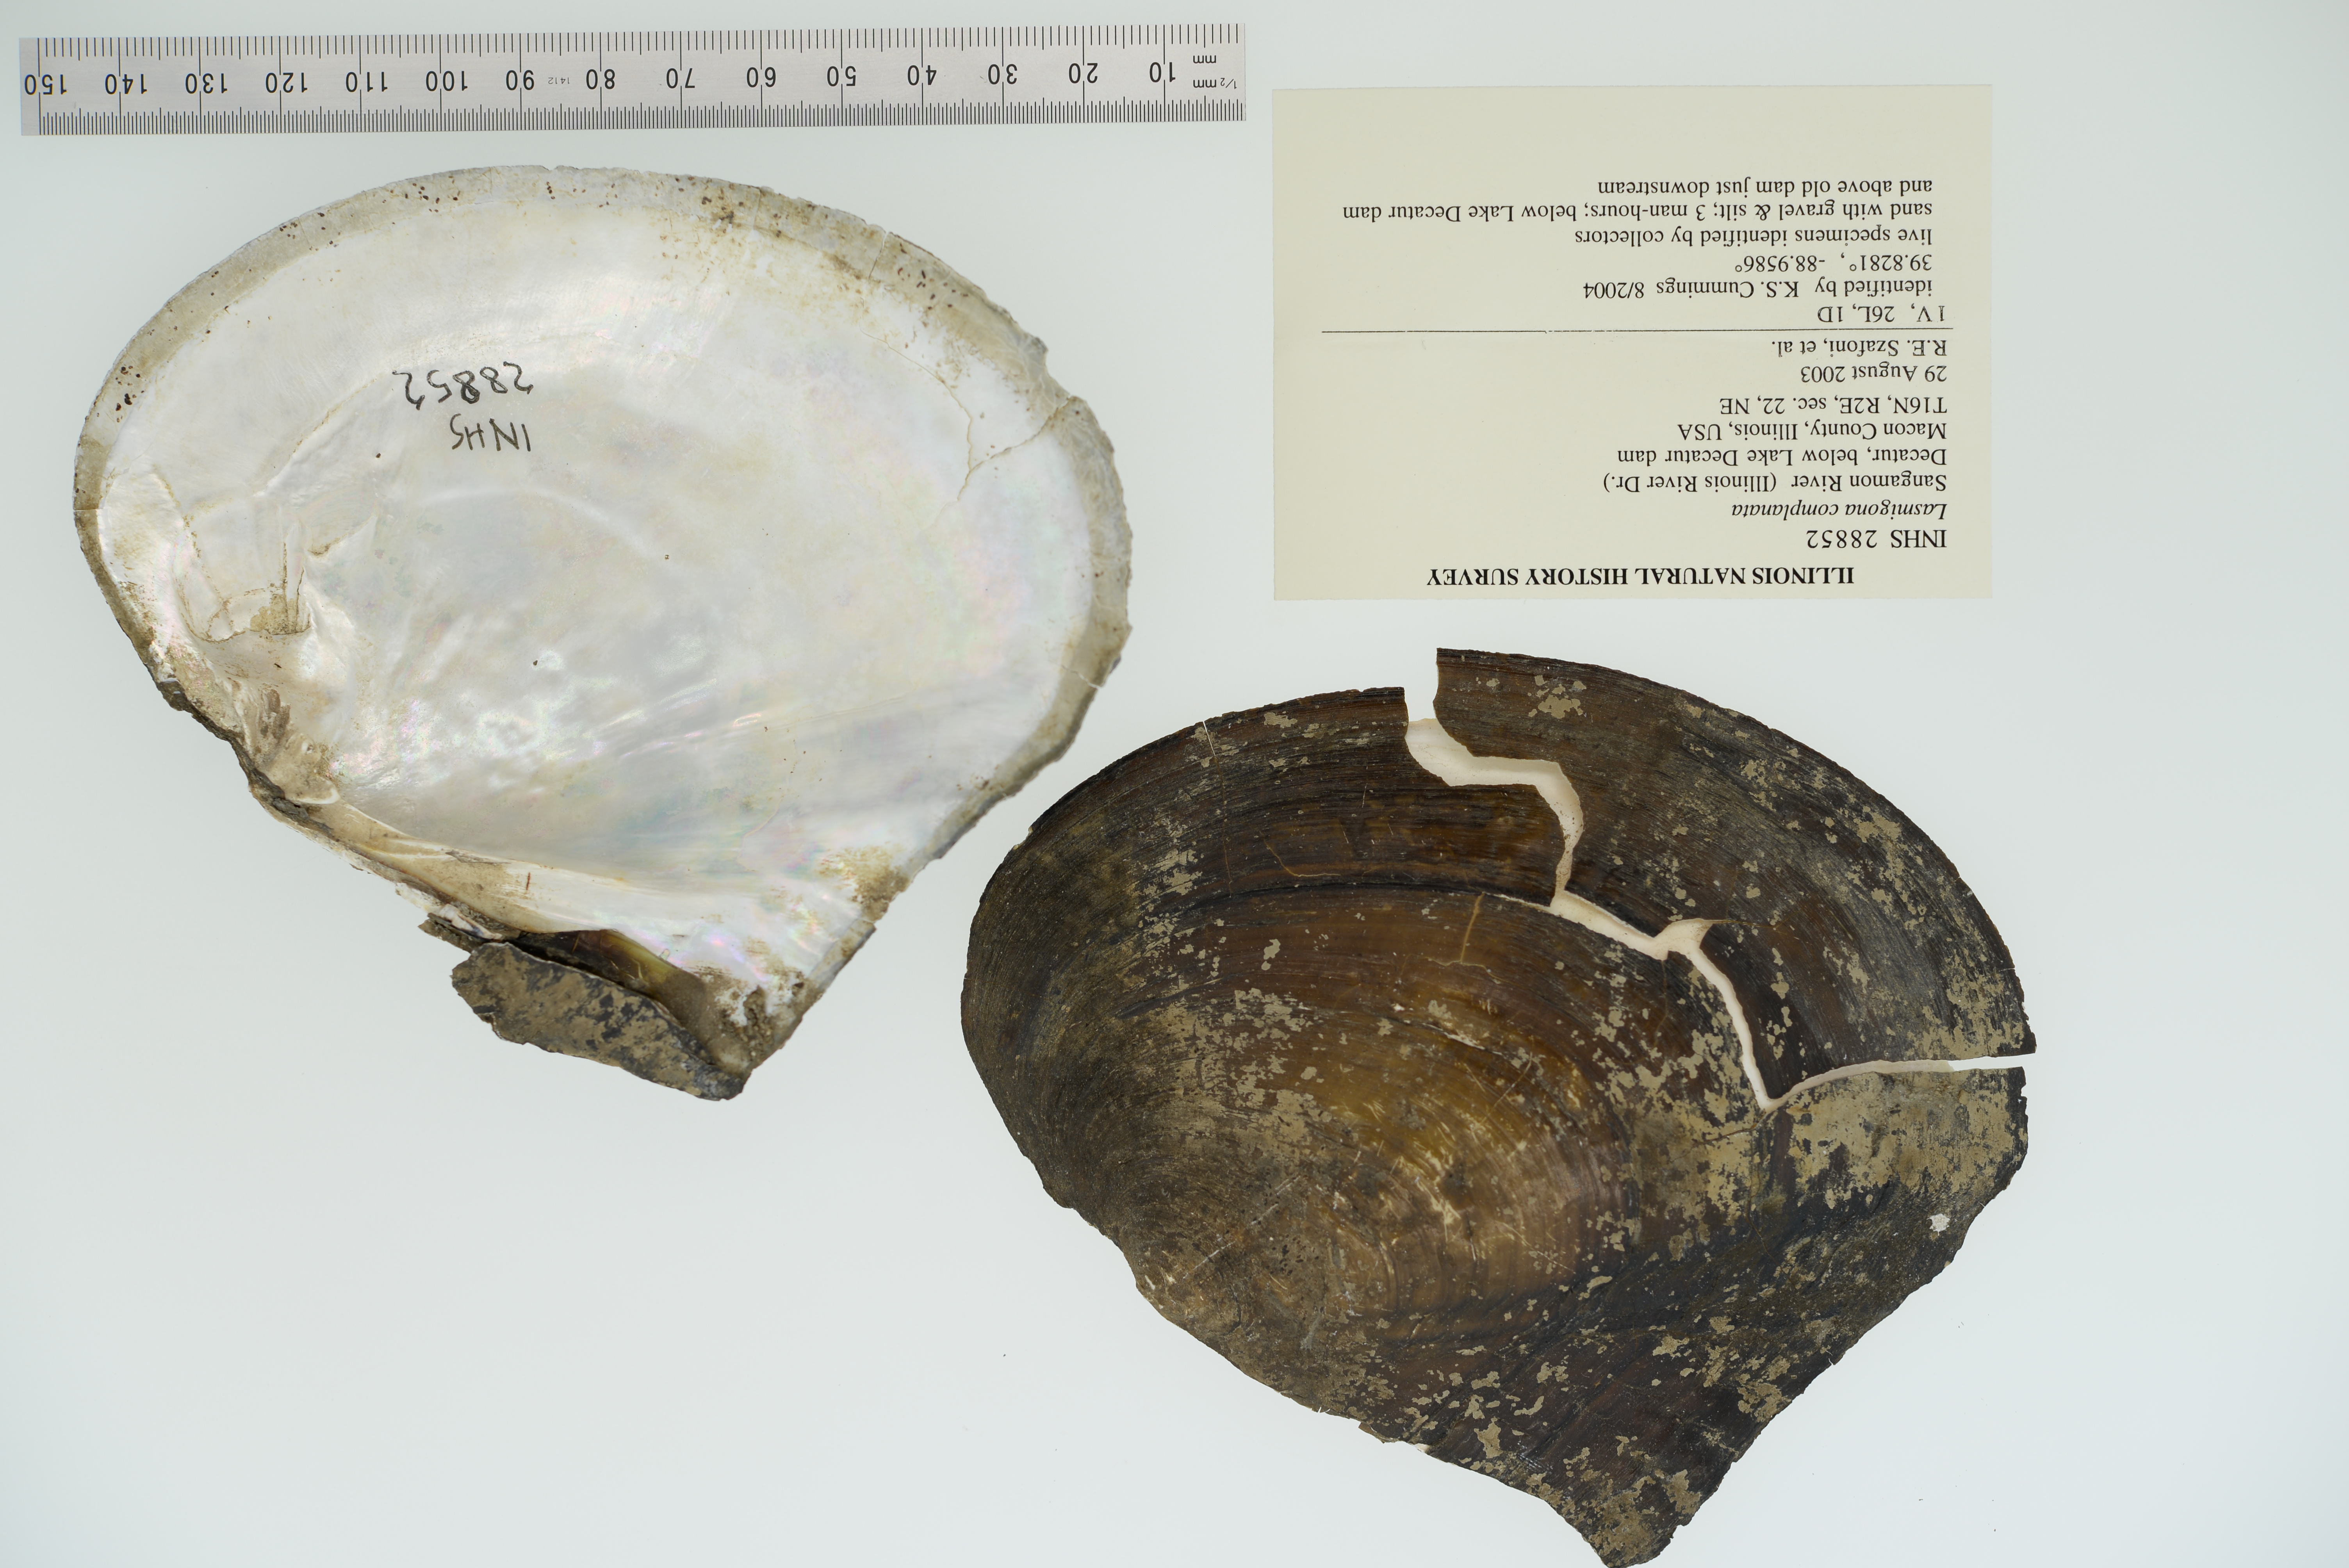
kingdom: Animalia
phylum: Mollusca
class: Bivalvia
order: Unionida
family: Unionidae
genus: Lasmigona
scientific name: Lasmigona complanata
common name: White heelsplitter
